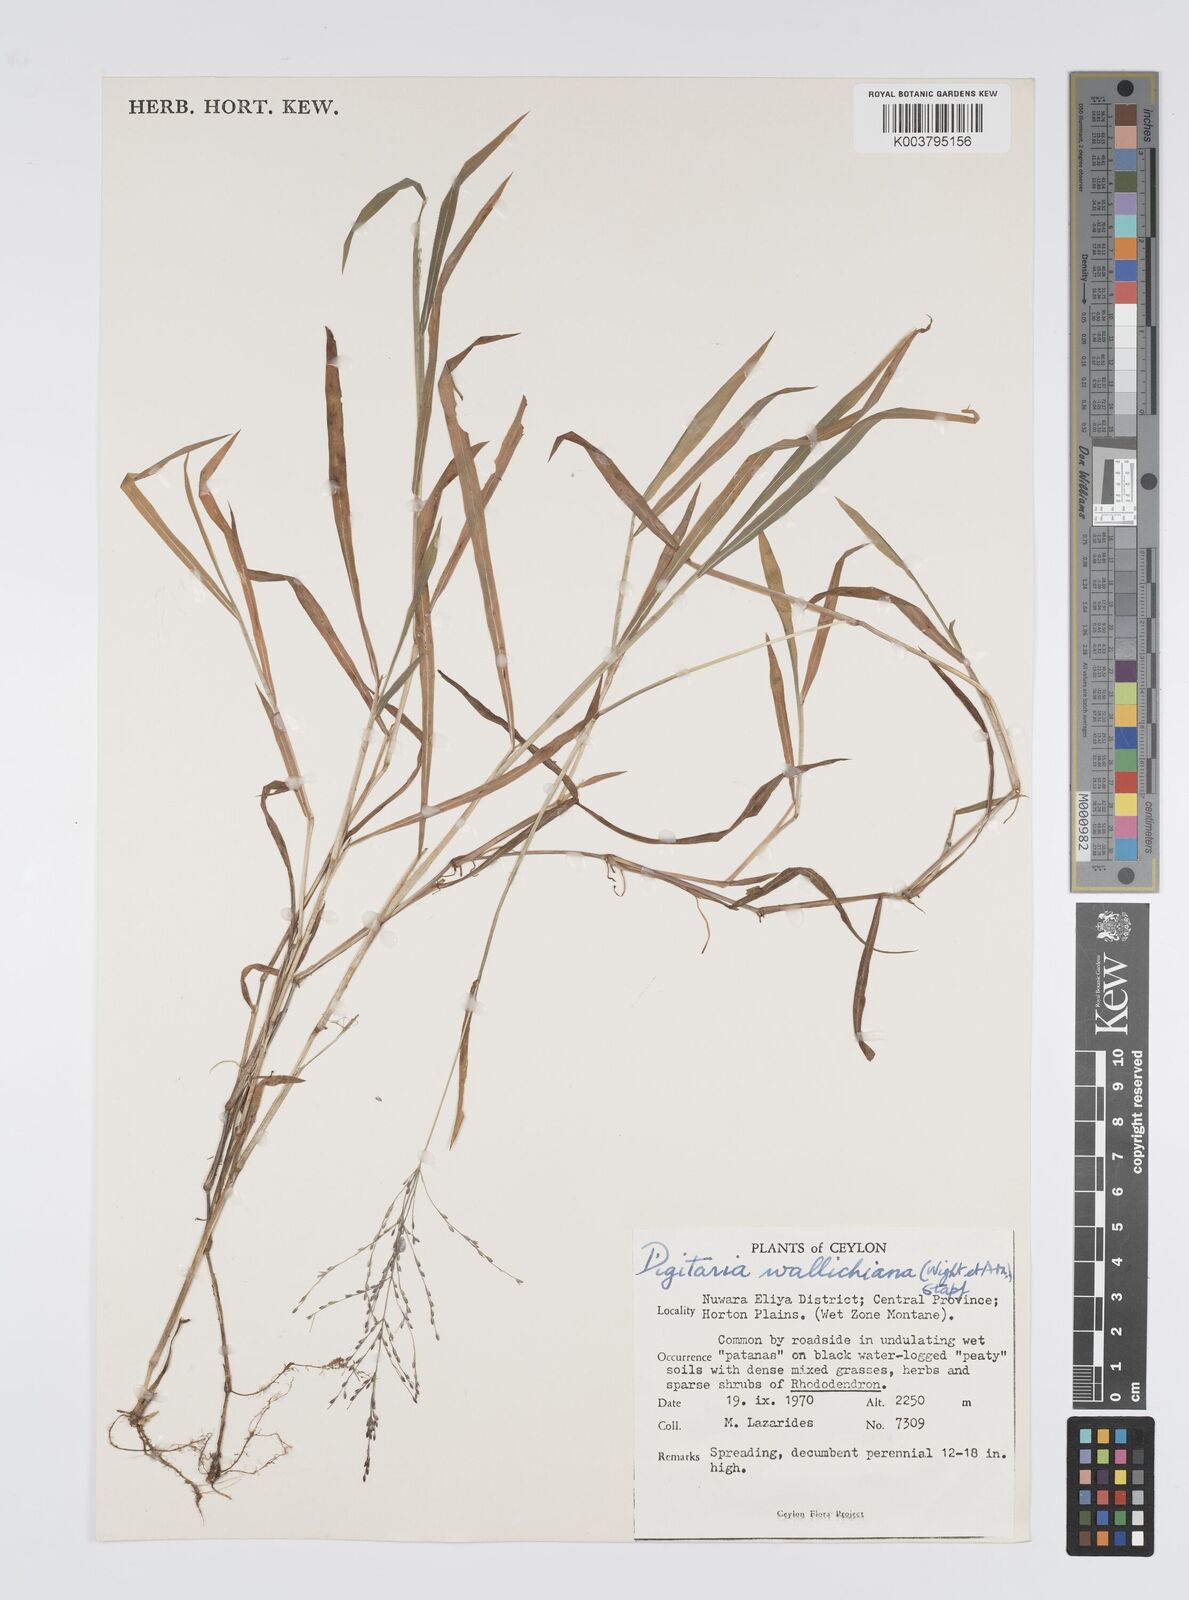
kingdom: Plantae
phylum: Tracheophyta
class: Liliopsida
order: Poales
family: Poaceae
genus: Digitaria
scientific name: Digitaria wallichiana
